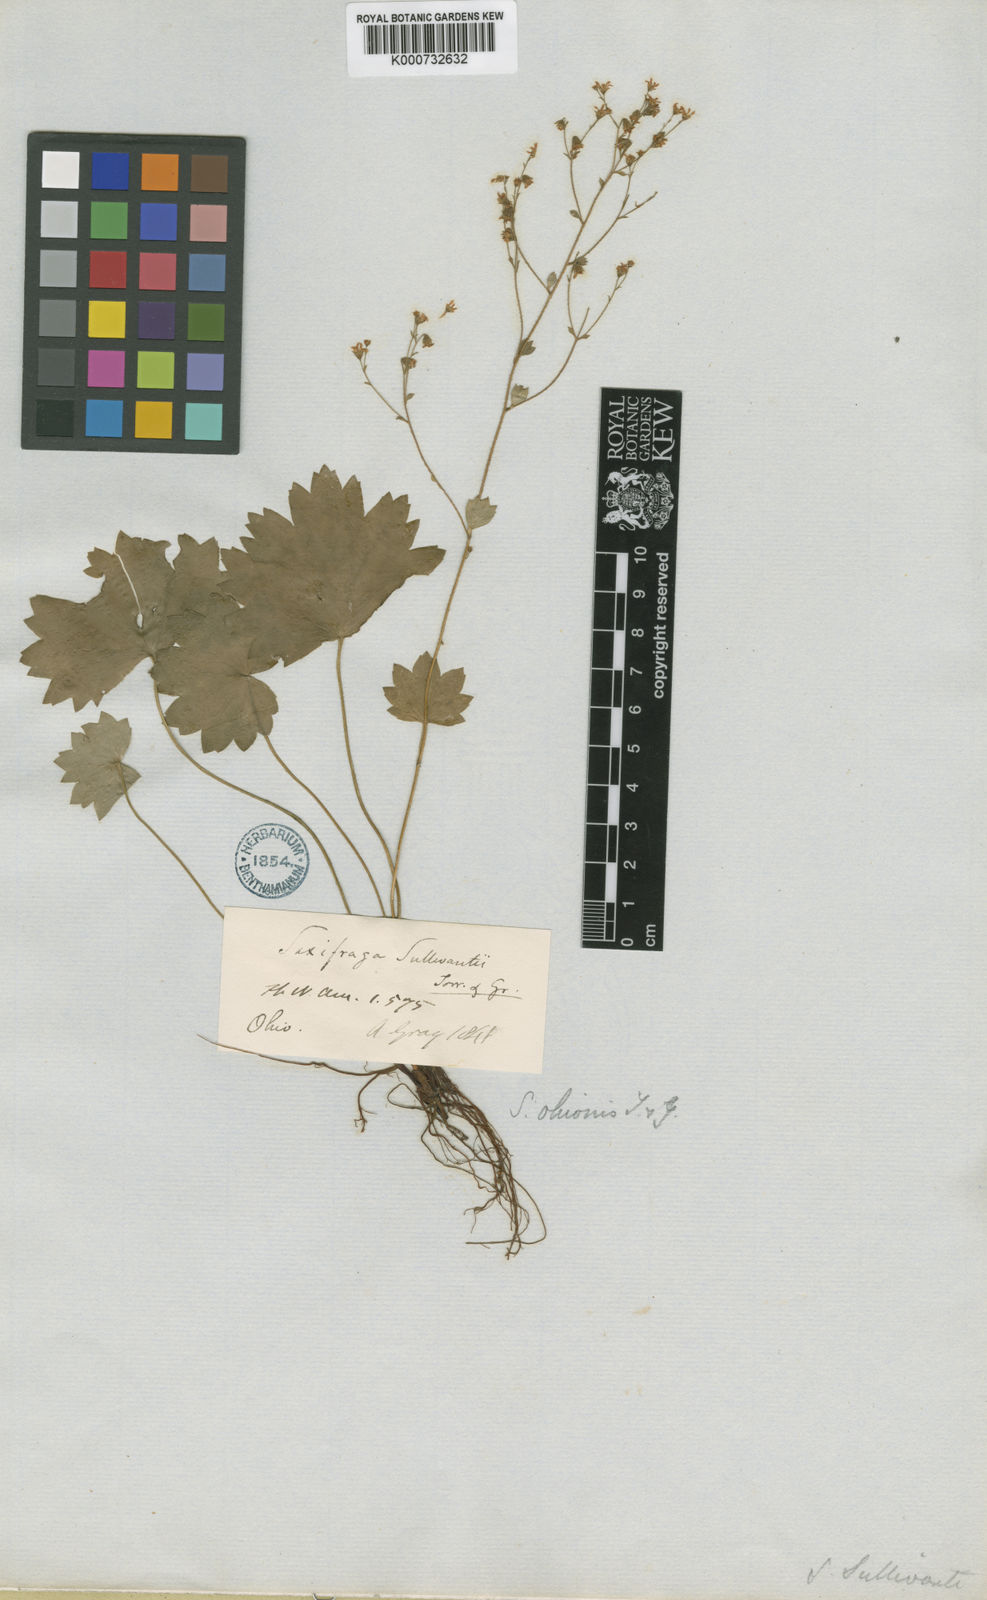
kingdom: Plantae
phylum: Tracheophyta
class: Magnoliopsida
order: Saxifragales
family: Saxifragaceae
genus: Sullivantia
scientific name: Sullivantia sullivantii
